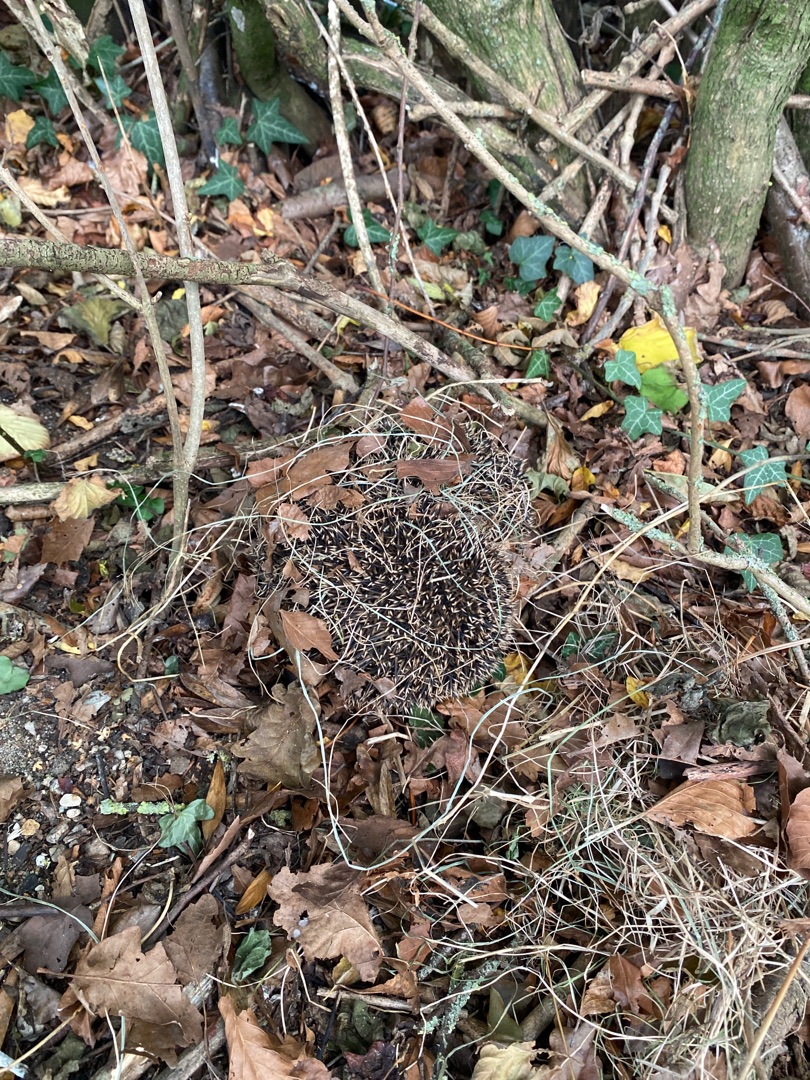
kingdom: Animalia
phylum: Chordata
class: Mammalia
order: Erinaceomorpha
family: Erinaceidae
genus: Erinaceus
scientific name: Erinaceus europaeus
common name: Pindsvin
